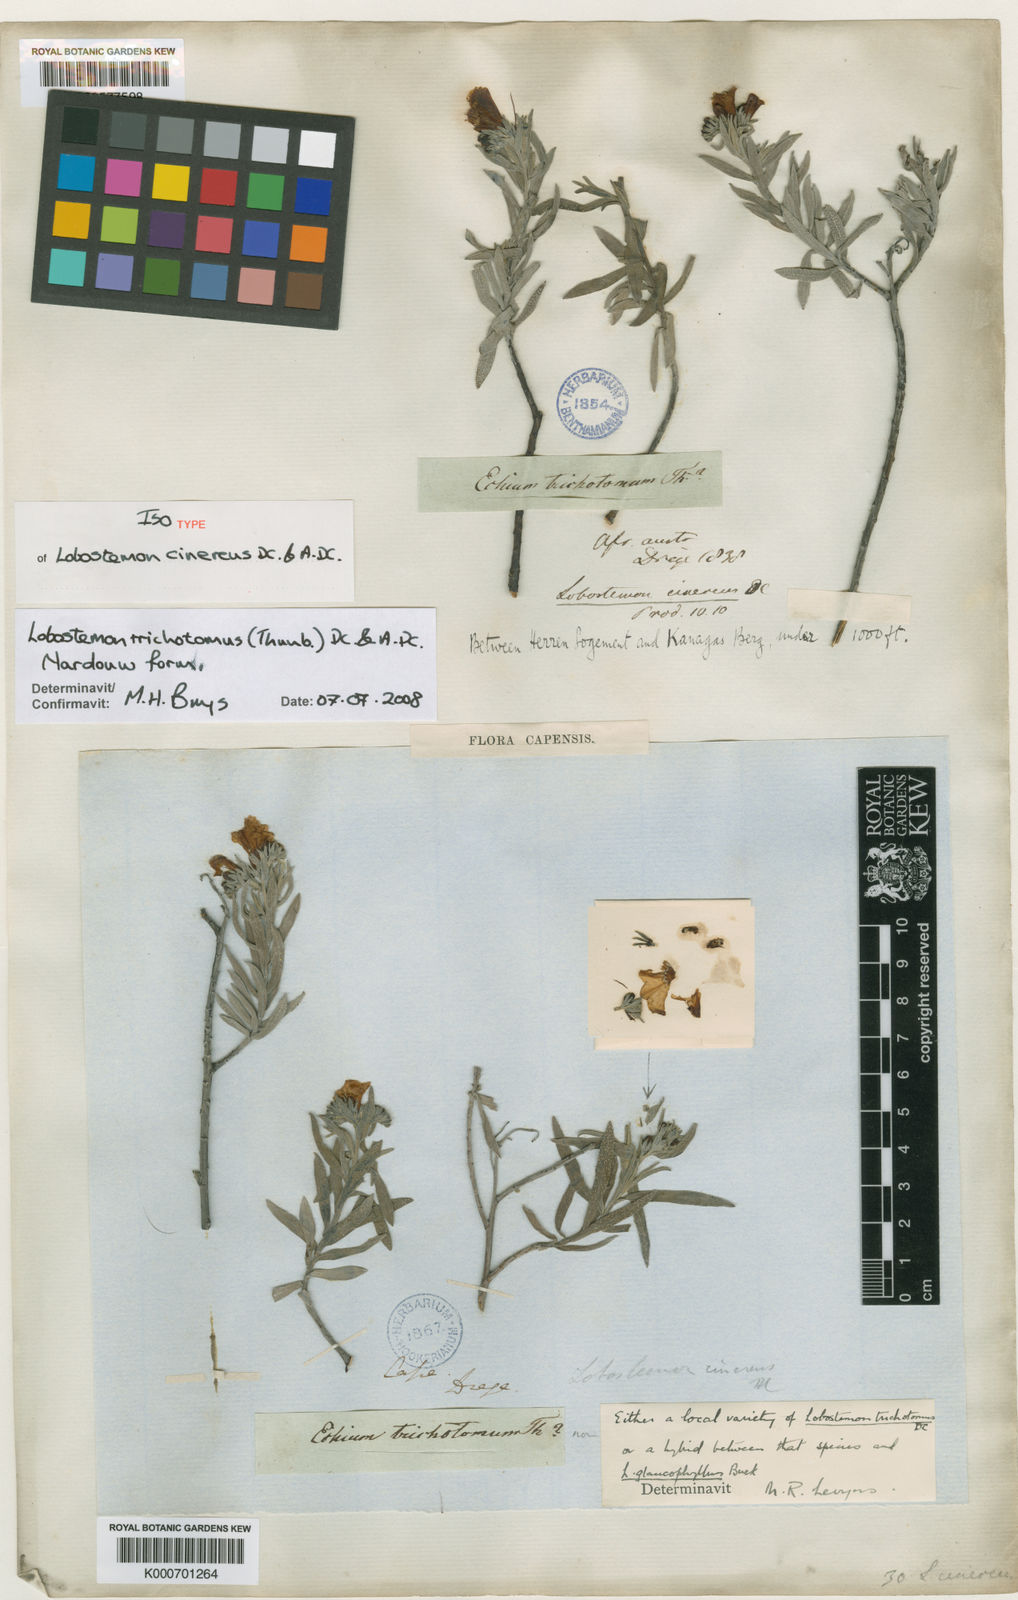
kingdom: Plantae
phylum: Tracheophyta
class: Magnoliopsida
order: Boraginales
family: Boraginaceae
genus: Lobostemon
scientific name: Lobostemon trichotomus
